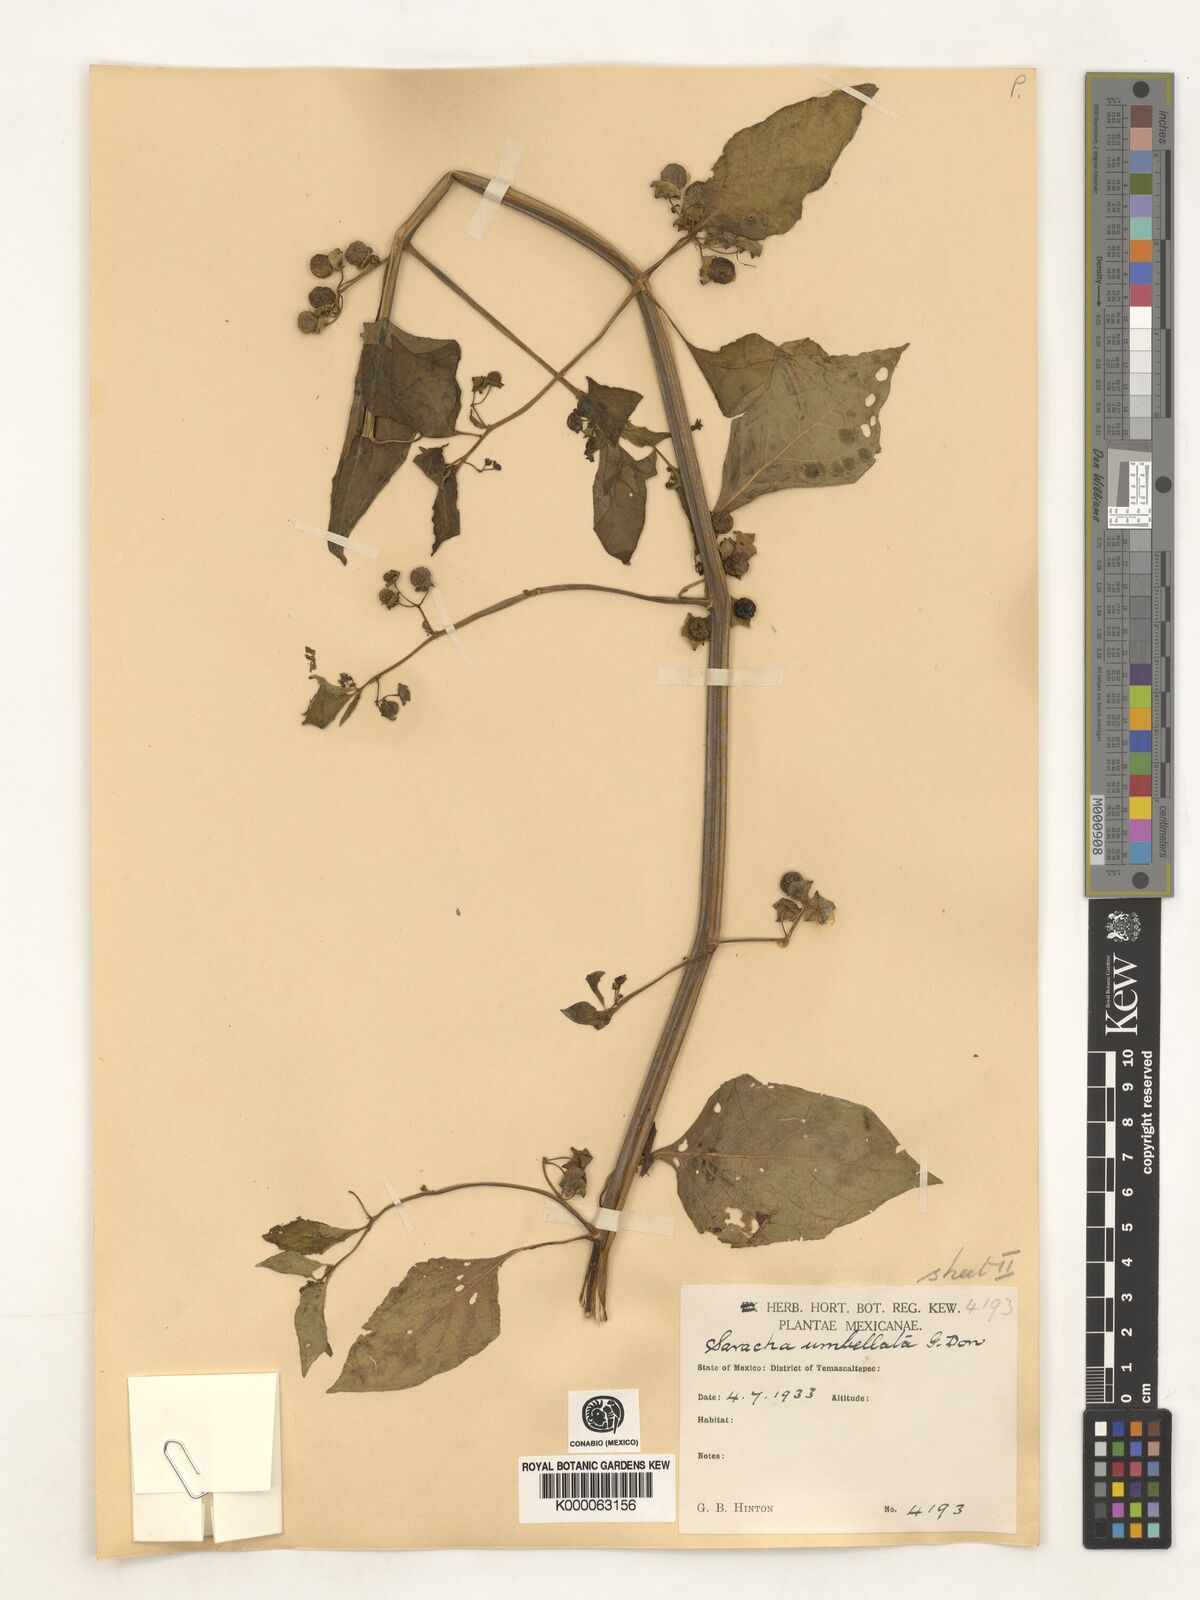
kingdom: Plantae
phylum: Tracheophyta
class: Magnoliopsida
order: Solanales
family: Solanaceae
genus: Saracha
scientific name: Saracha
